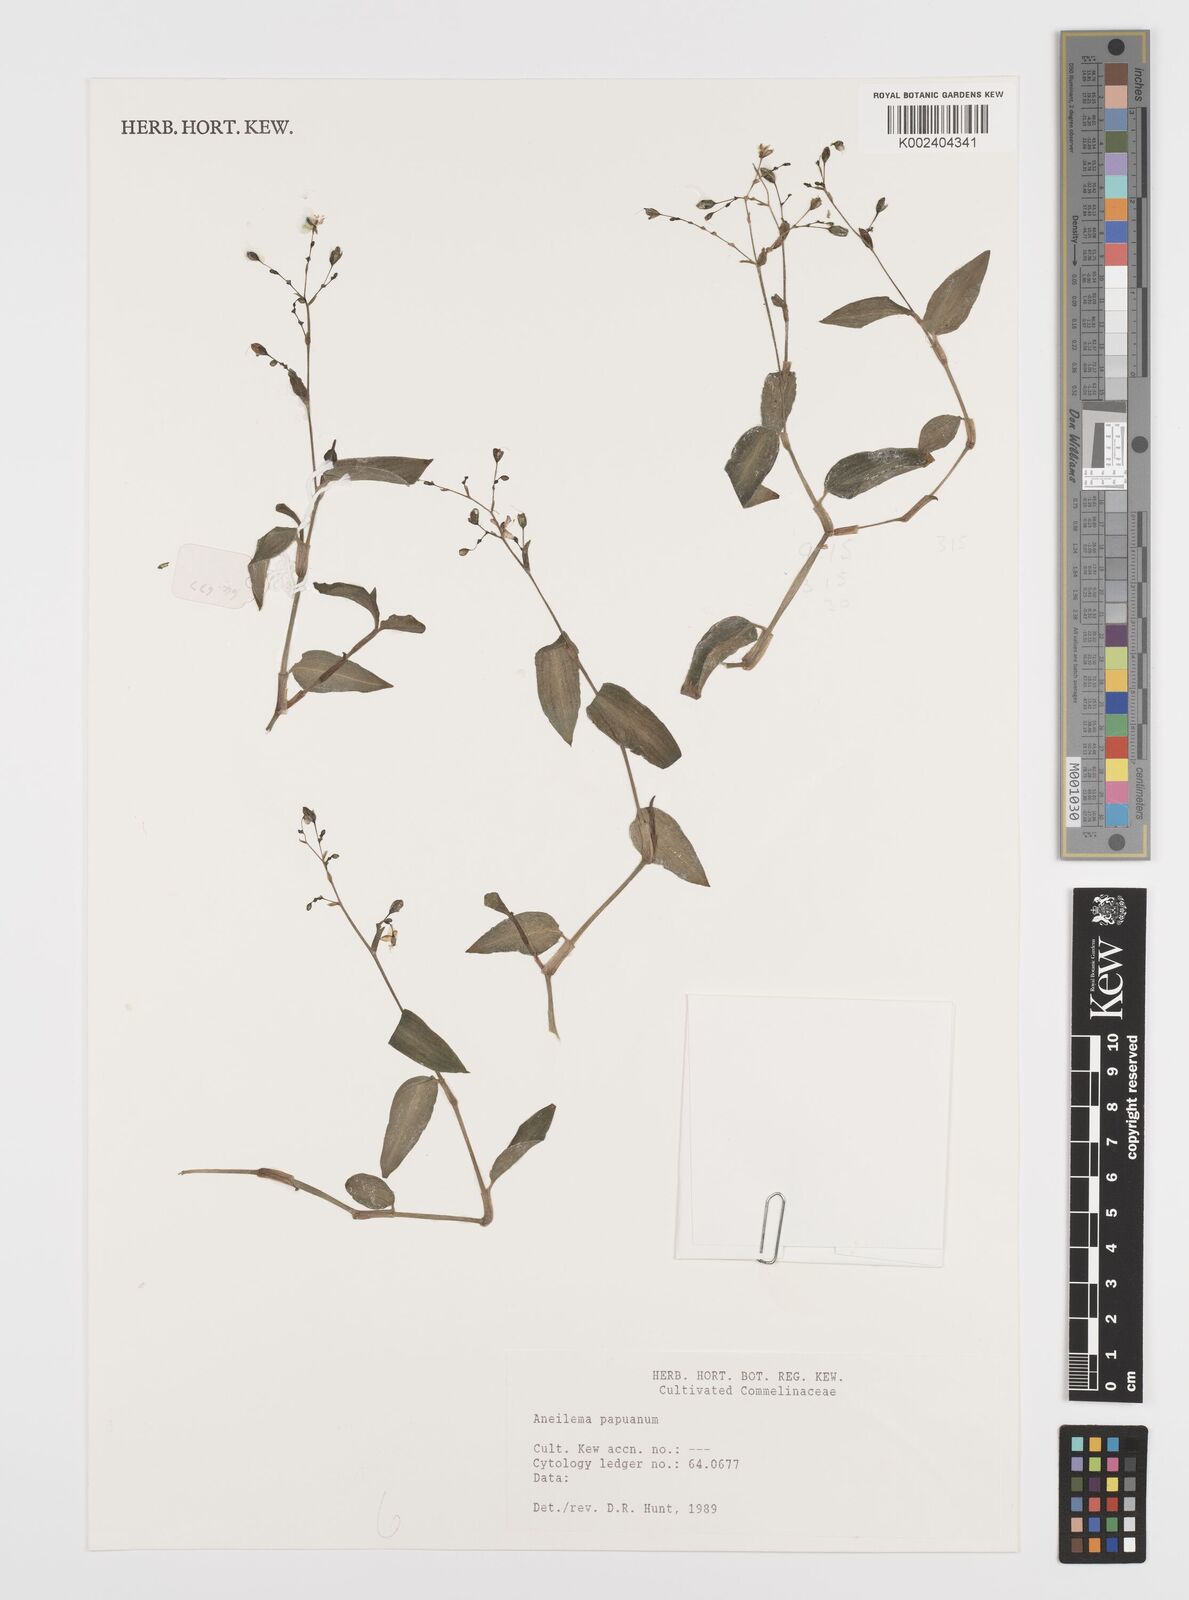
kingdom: Plantae
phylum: Tracheophyta
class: Liliopsida
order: Commelinales
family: Commelinaceae
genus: Aneilema
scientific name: Aneilema acuminatum
